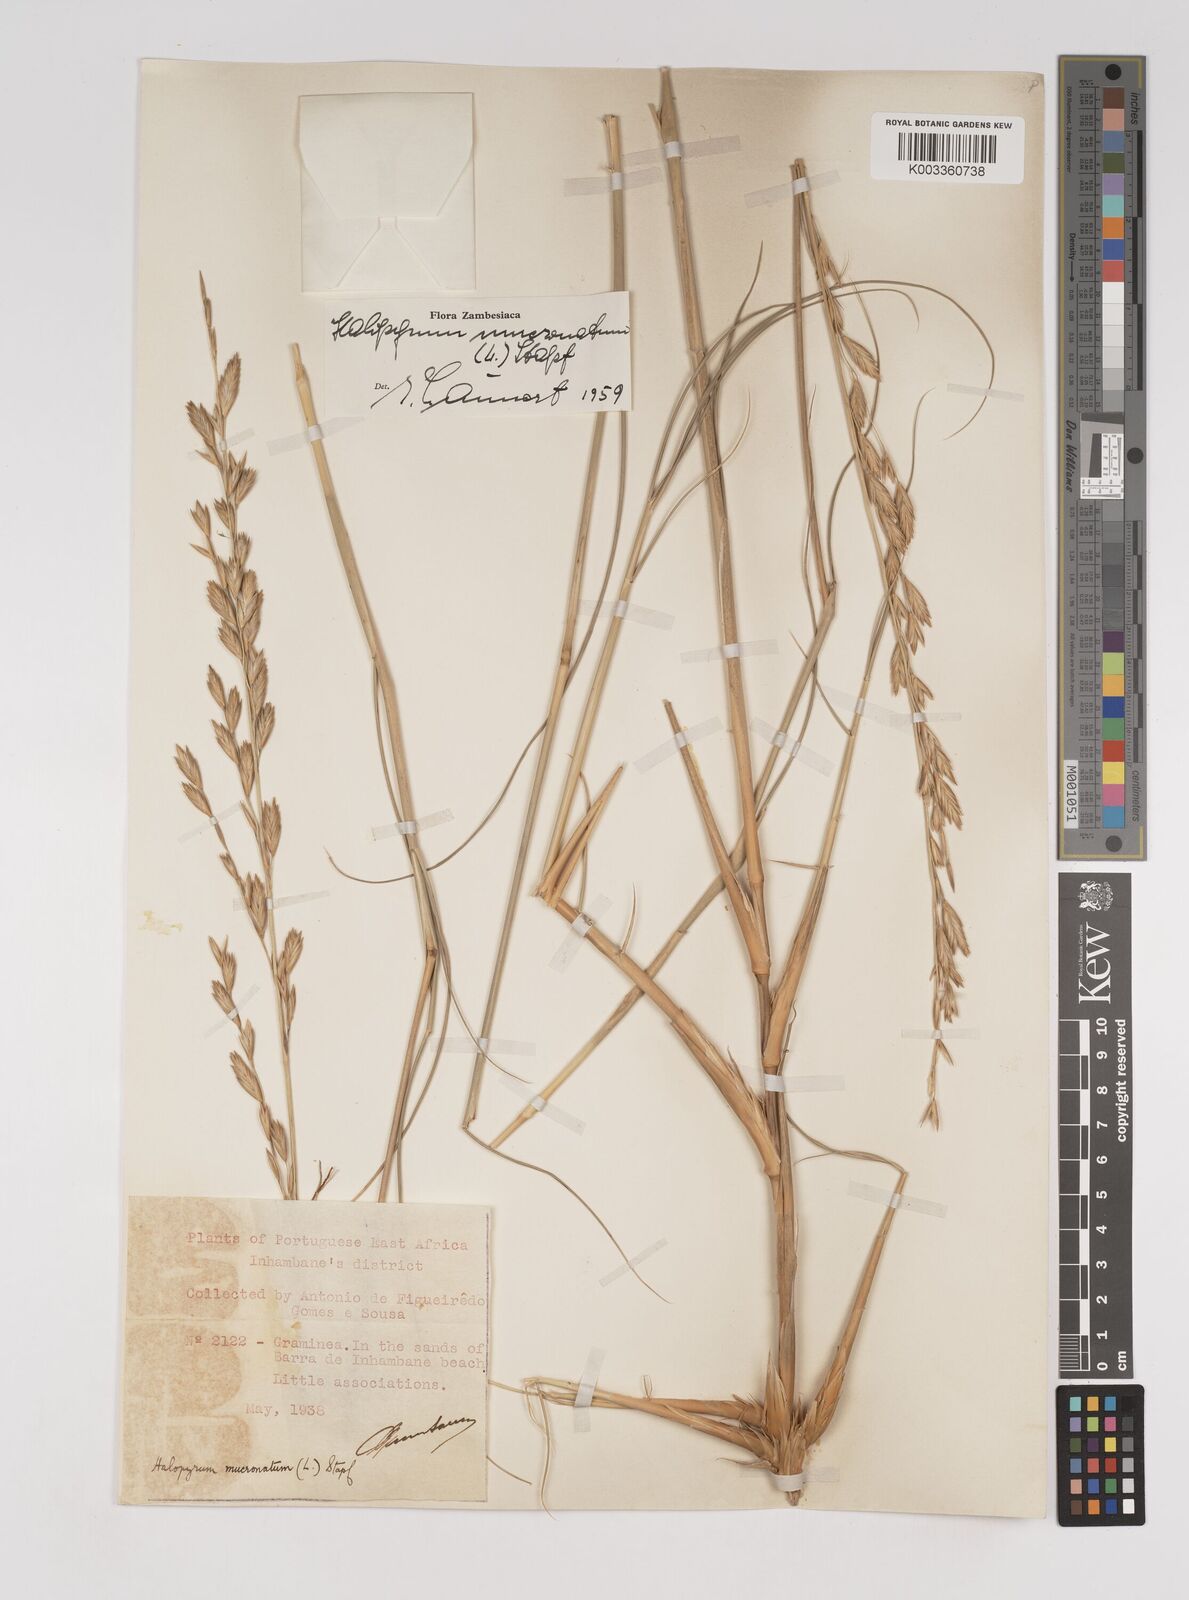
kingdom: Plantae
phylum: Tracheophyta
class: Liliopsida
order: Poales
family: Poaceae
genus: Halopyrum
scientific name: Halopyrum mucronatum
